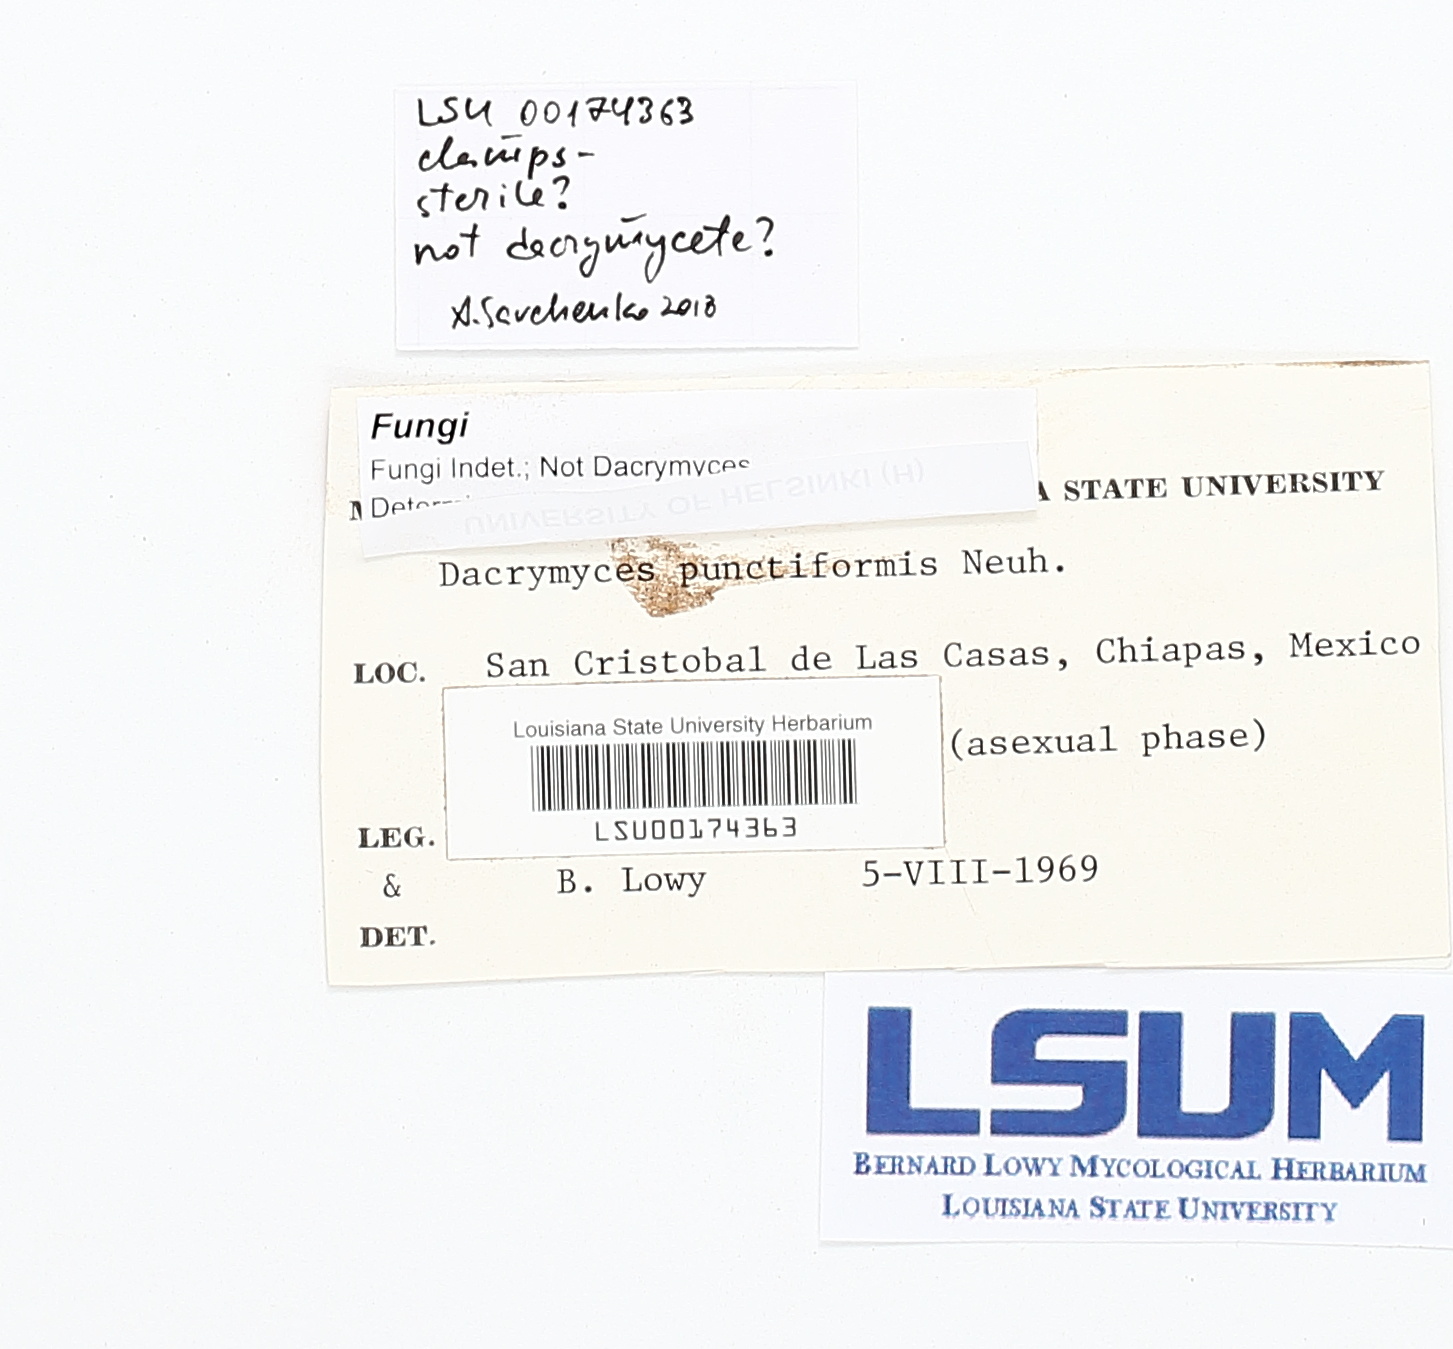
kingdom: Fungi
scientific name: Fungi
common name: Fungi
